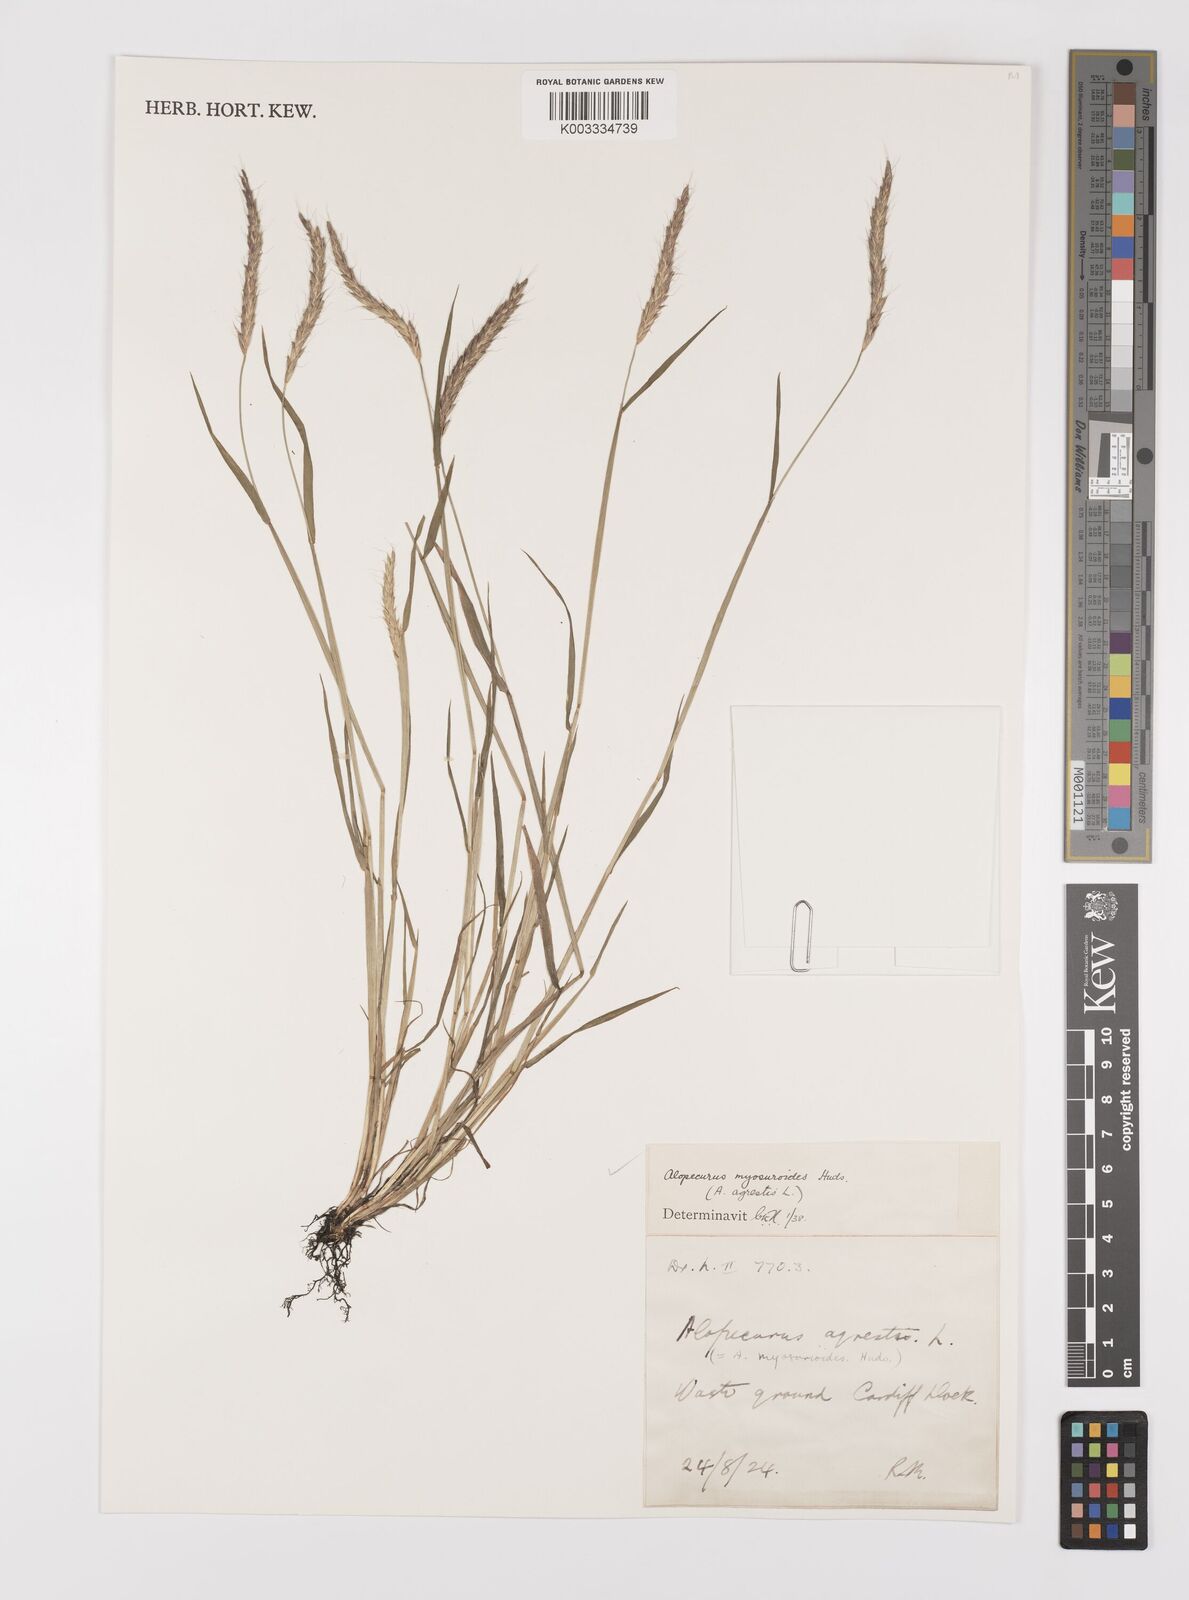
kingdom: Plantae
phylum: Tracheophyta
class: Liliopsida
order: Poales
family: Poaceae
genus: Alopecurus
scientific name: Alopecurus myosuroides
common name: Black-grass
